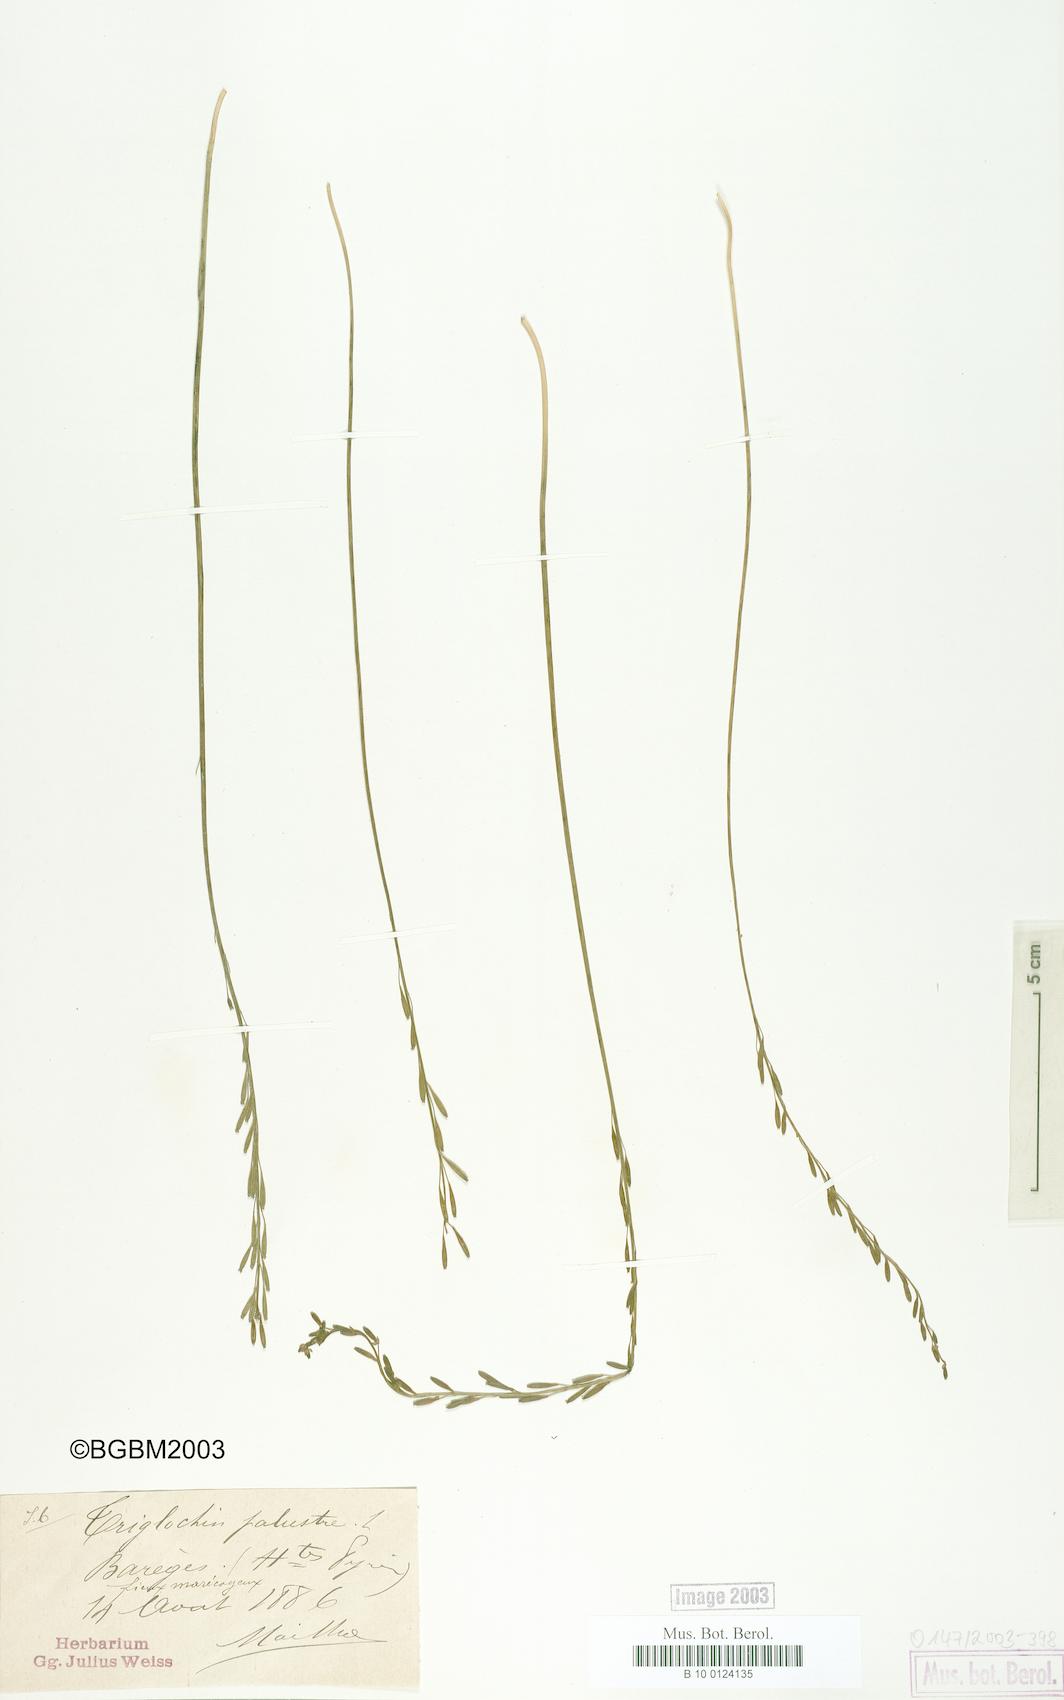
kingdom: Plantae
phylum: Tracheophyta
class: Liliopsida
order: Alismatales
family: Juncaginaceae
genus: Triglochin
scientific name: Triglochin palustris
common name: Marsh arrowgrass
